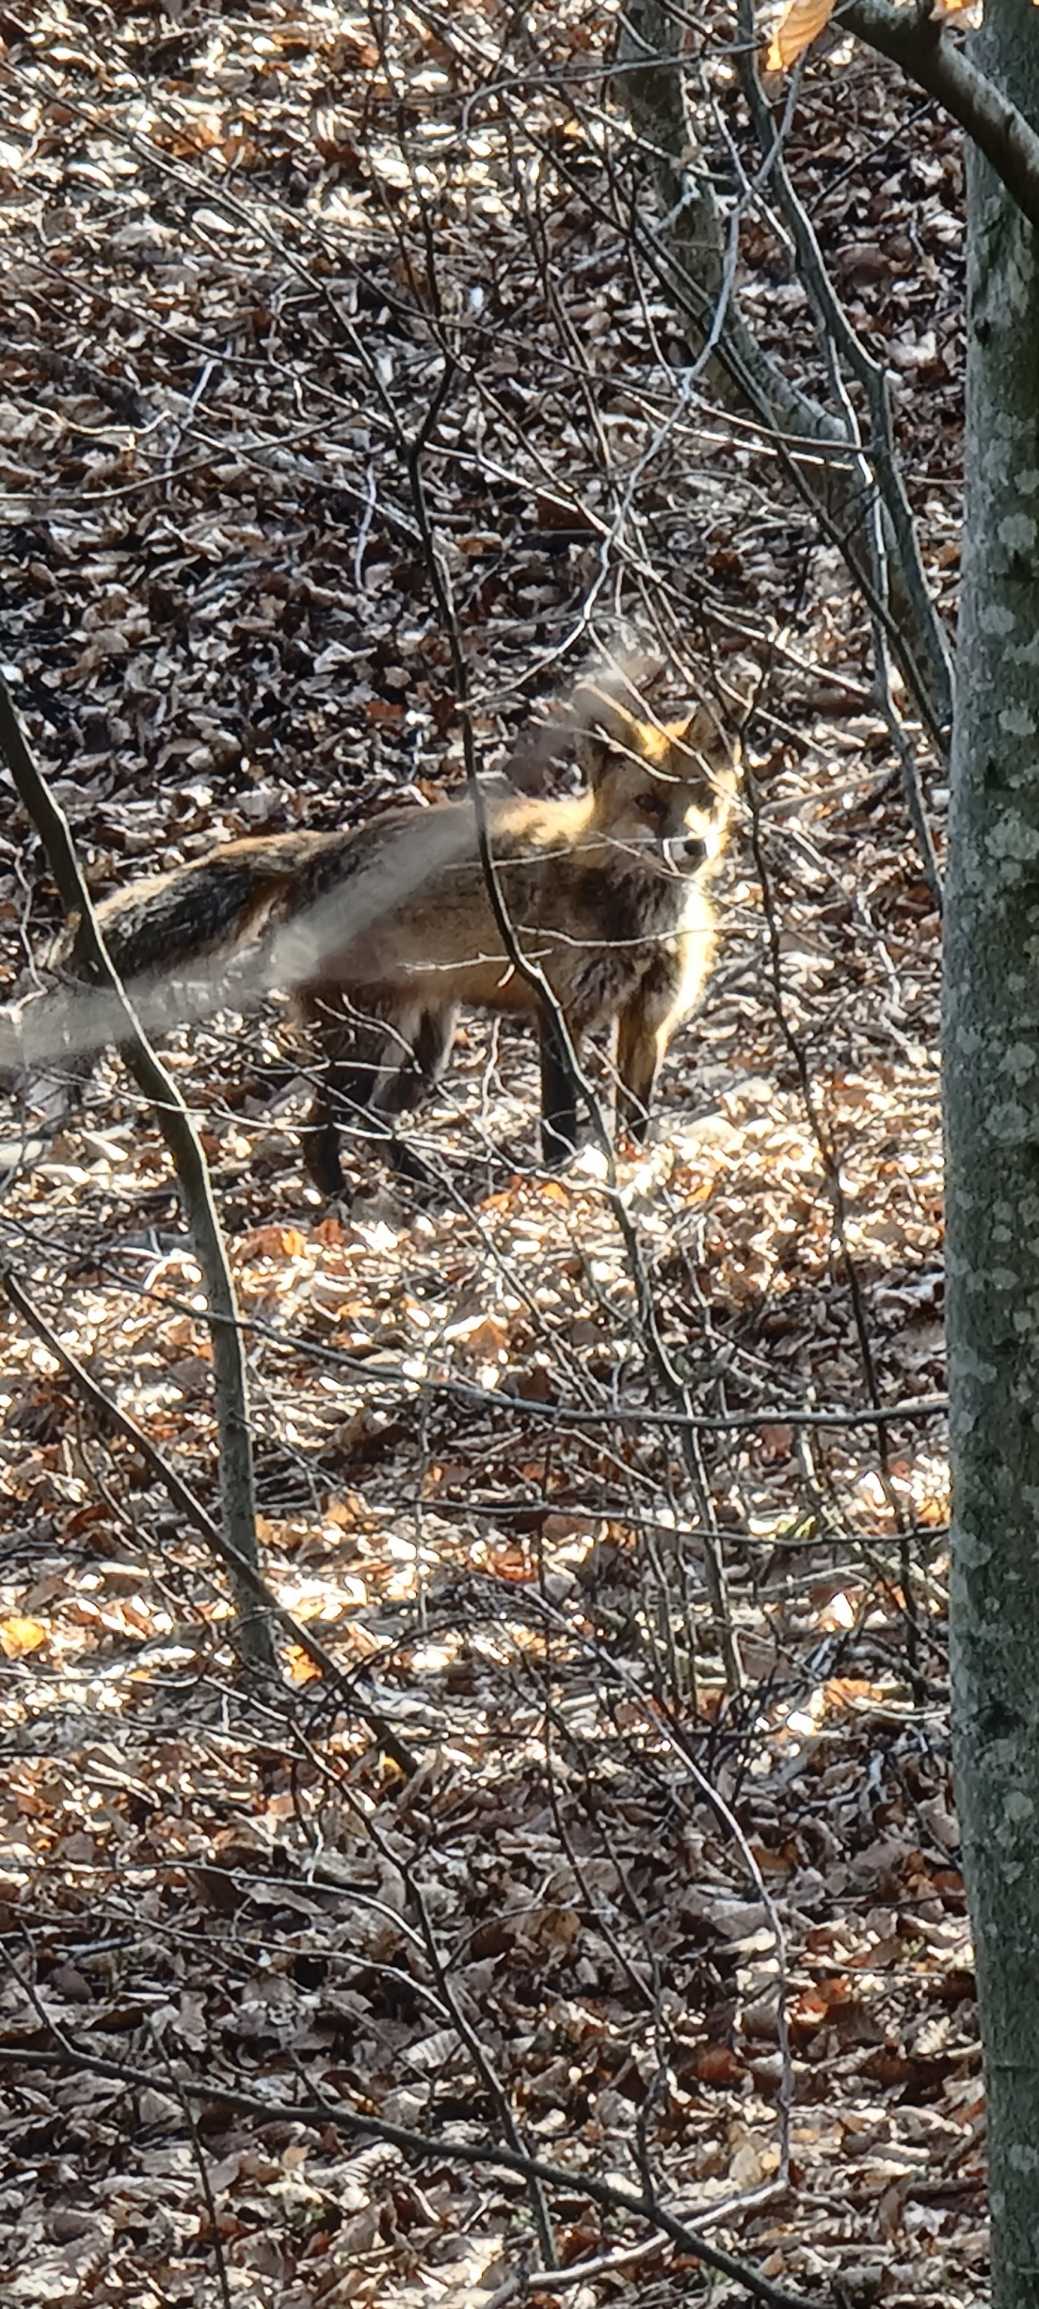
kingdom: Animalia
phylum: Chordata
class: Mammalia
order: Carnivora
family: Canidae
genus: Vulpes
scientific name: Vulpes vulpes
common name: Ræv
